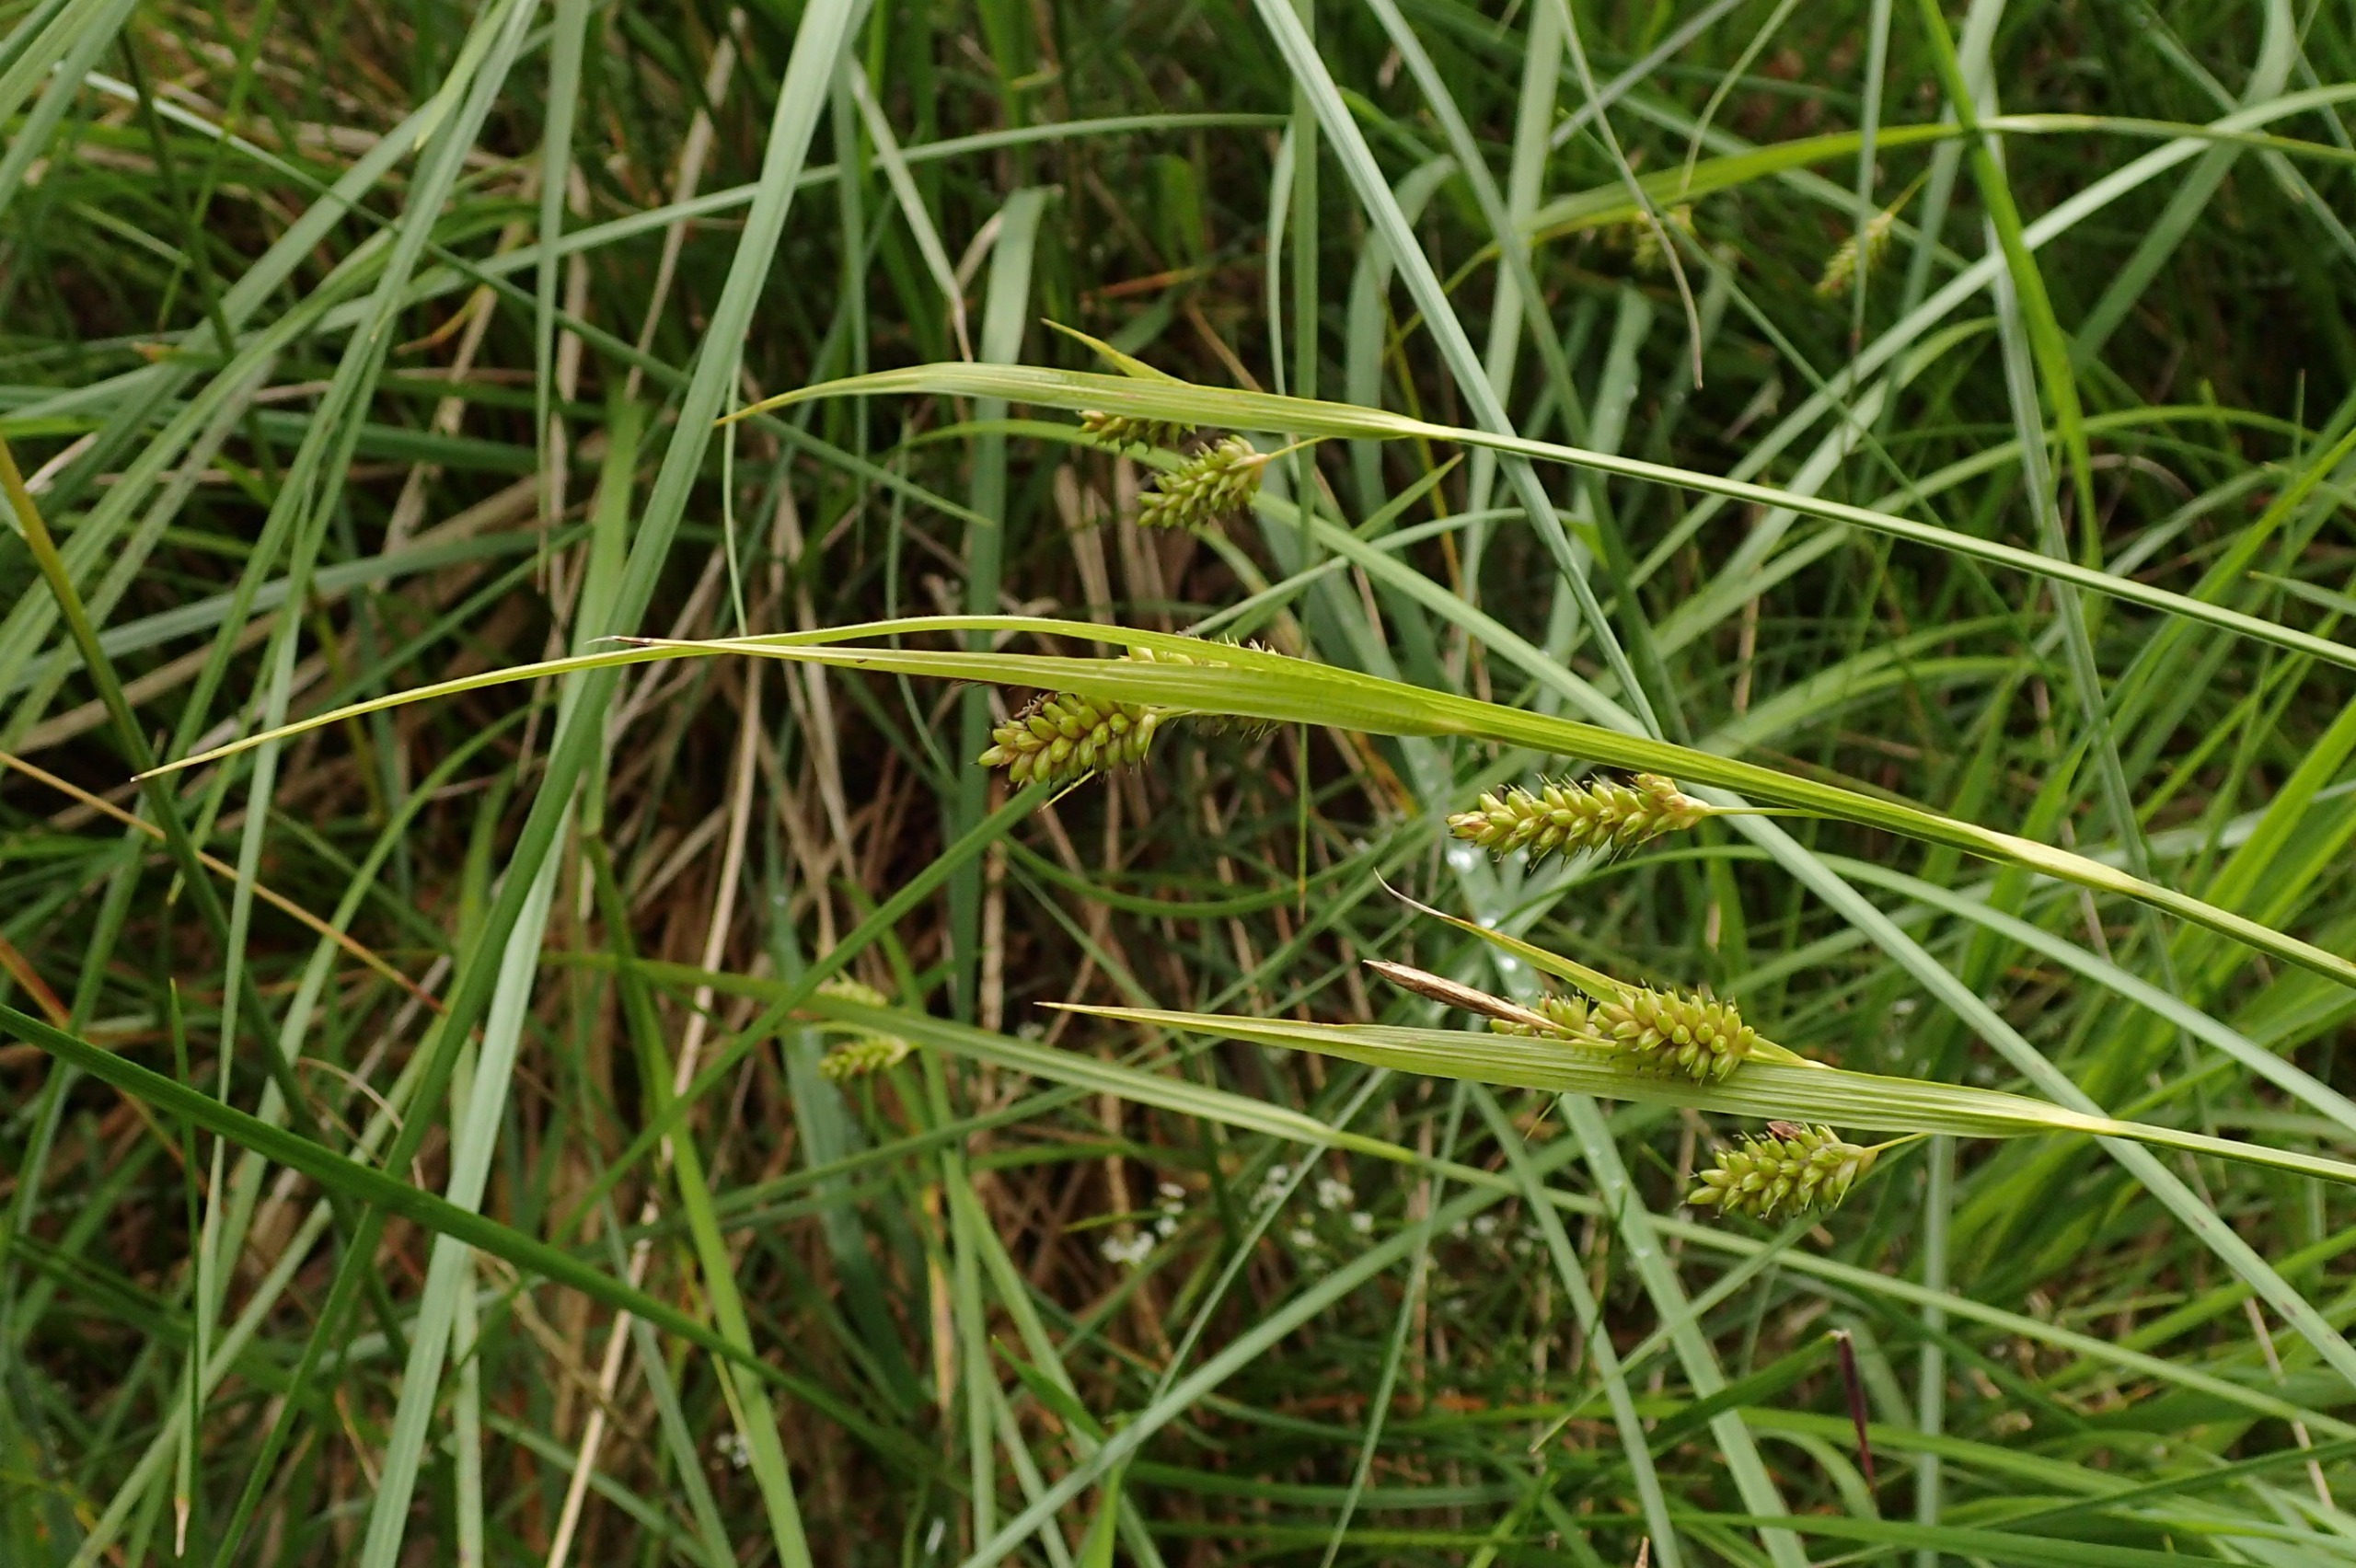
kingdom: Plantae
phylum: Tracheophyta
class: Liliopsida
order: Poales
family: Cyperaceae
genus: Carex
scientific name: Carex pallescens
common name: Bleg star
